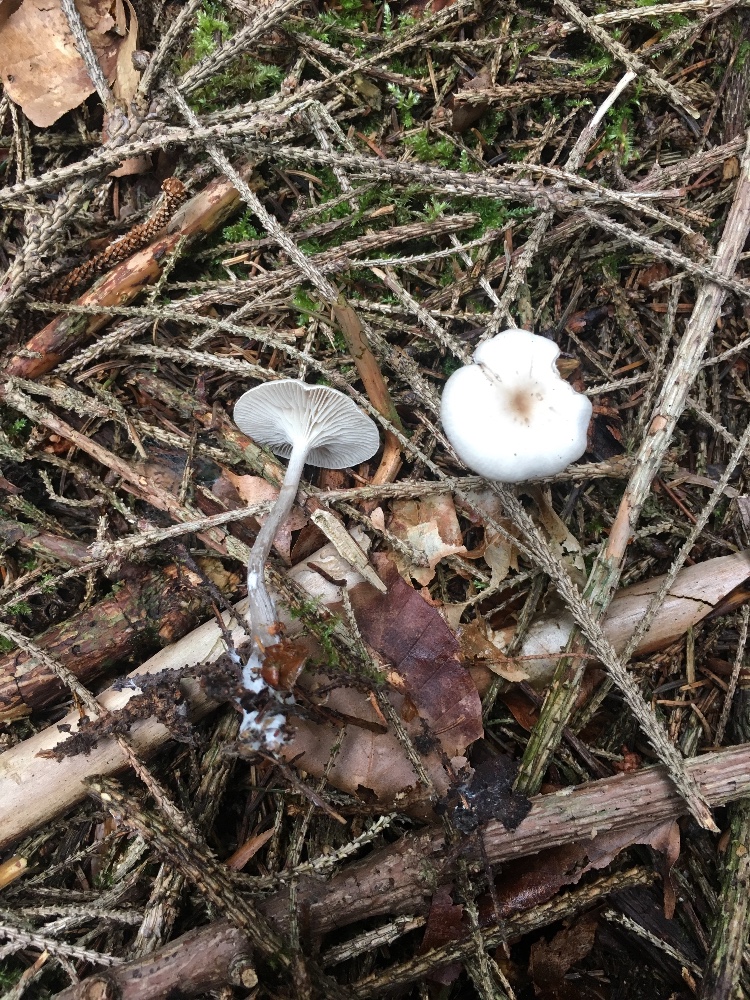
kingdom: Fungi
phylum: Basidiomycota
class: Agaricomycetes
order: Agaricales
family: Tricholomataceae
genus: Clitocybe
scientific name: Clitocybe metachroa
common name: grå tragthat
